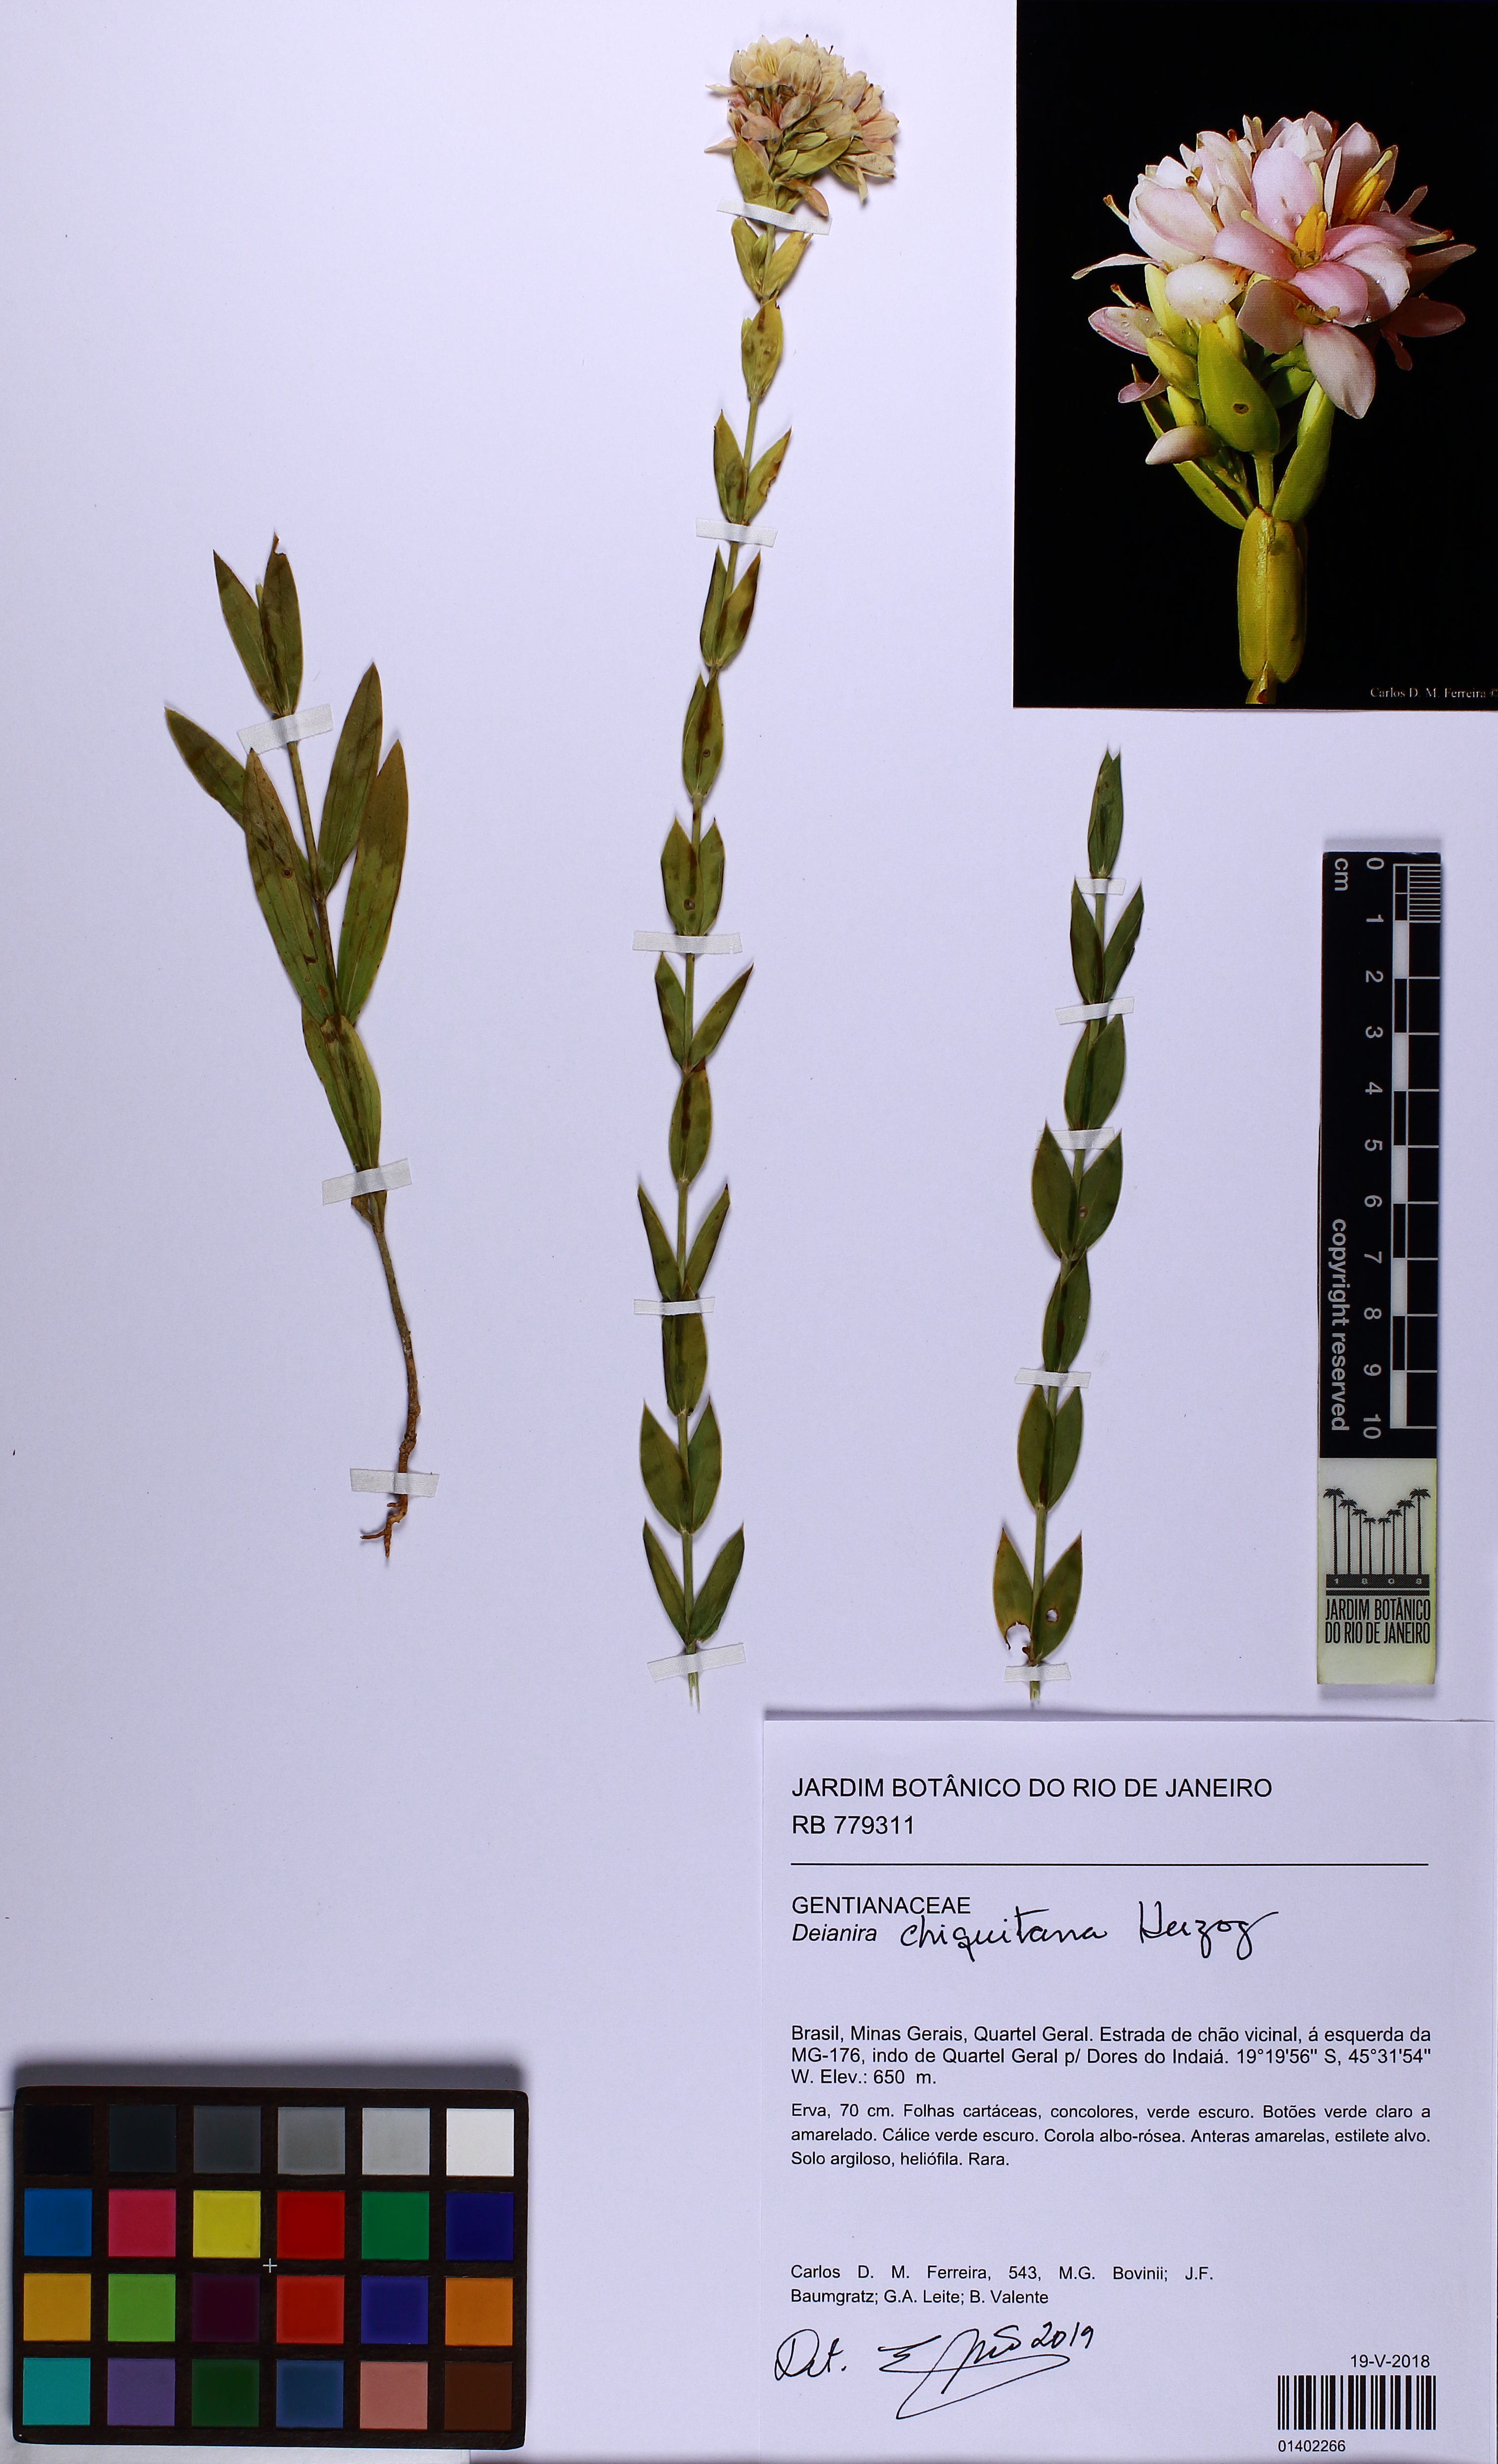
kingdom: Plantae
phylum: Tracheophyta
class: Magnoliopsida
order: Gentianales
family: Gentianaceae
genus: Deianira
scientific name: Deianira chiquitana
